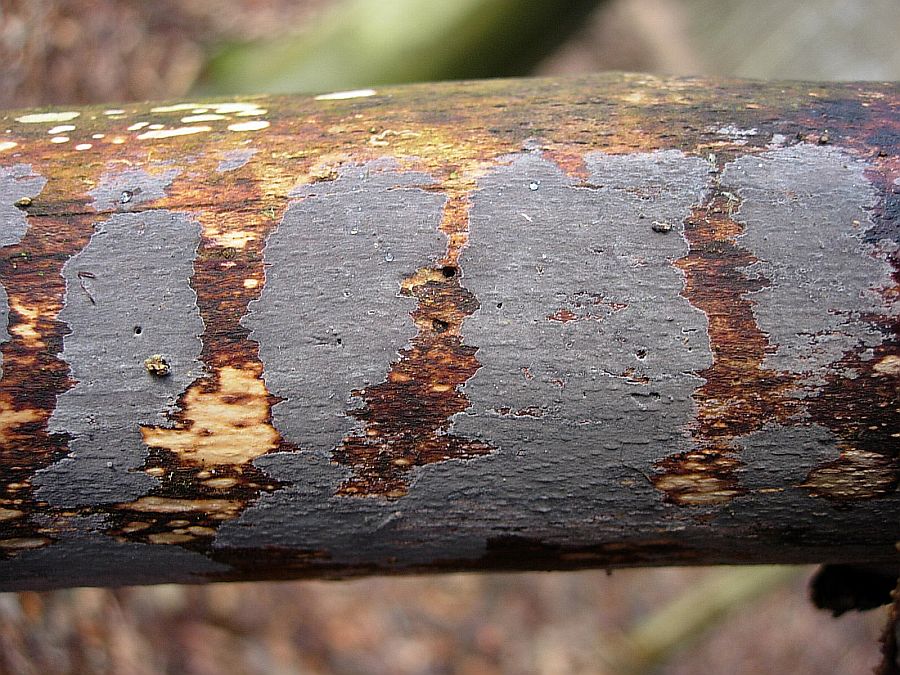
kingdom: Fungi
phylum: Basidiomycota
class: Agaricomycetes
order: Russulales
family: Peniophoraceae
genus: Peniophora
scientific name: Peniophora lycii
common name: grynet voksskind
